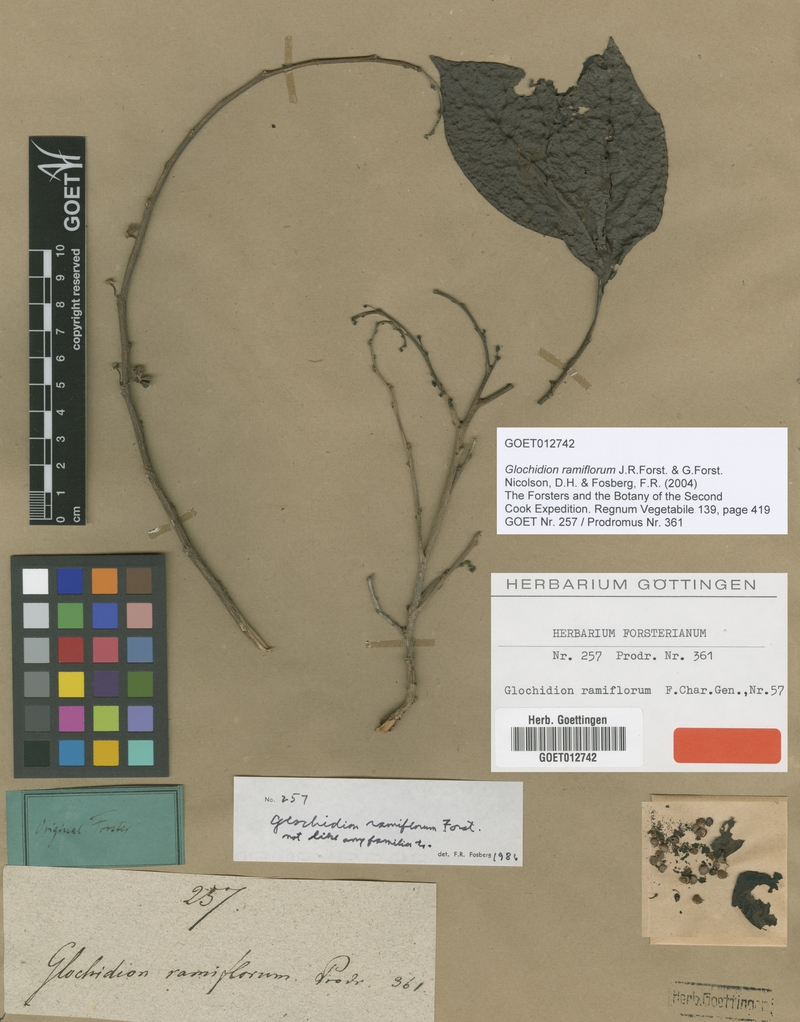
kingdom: Plantae
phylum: Tracheophyta
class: Magnoliopsida
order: Malpighiales
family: Phyllanthaceae
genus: Glochidion
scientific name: Glochidion ramiflorum
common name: Masame
